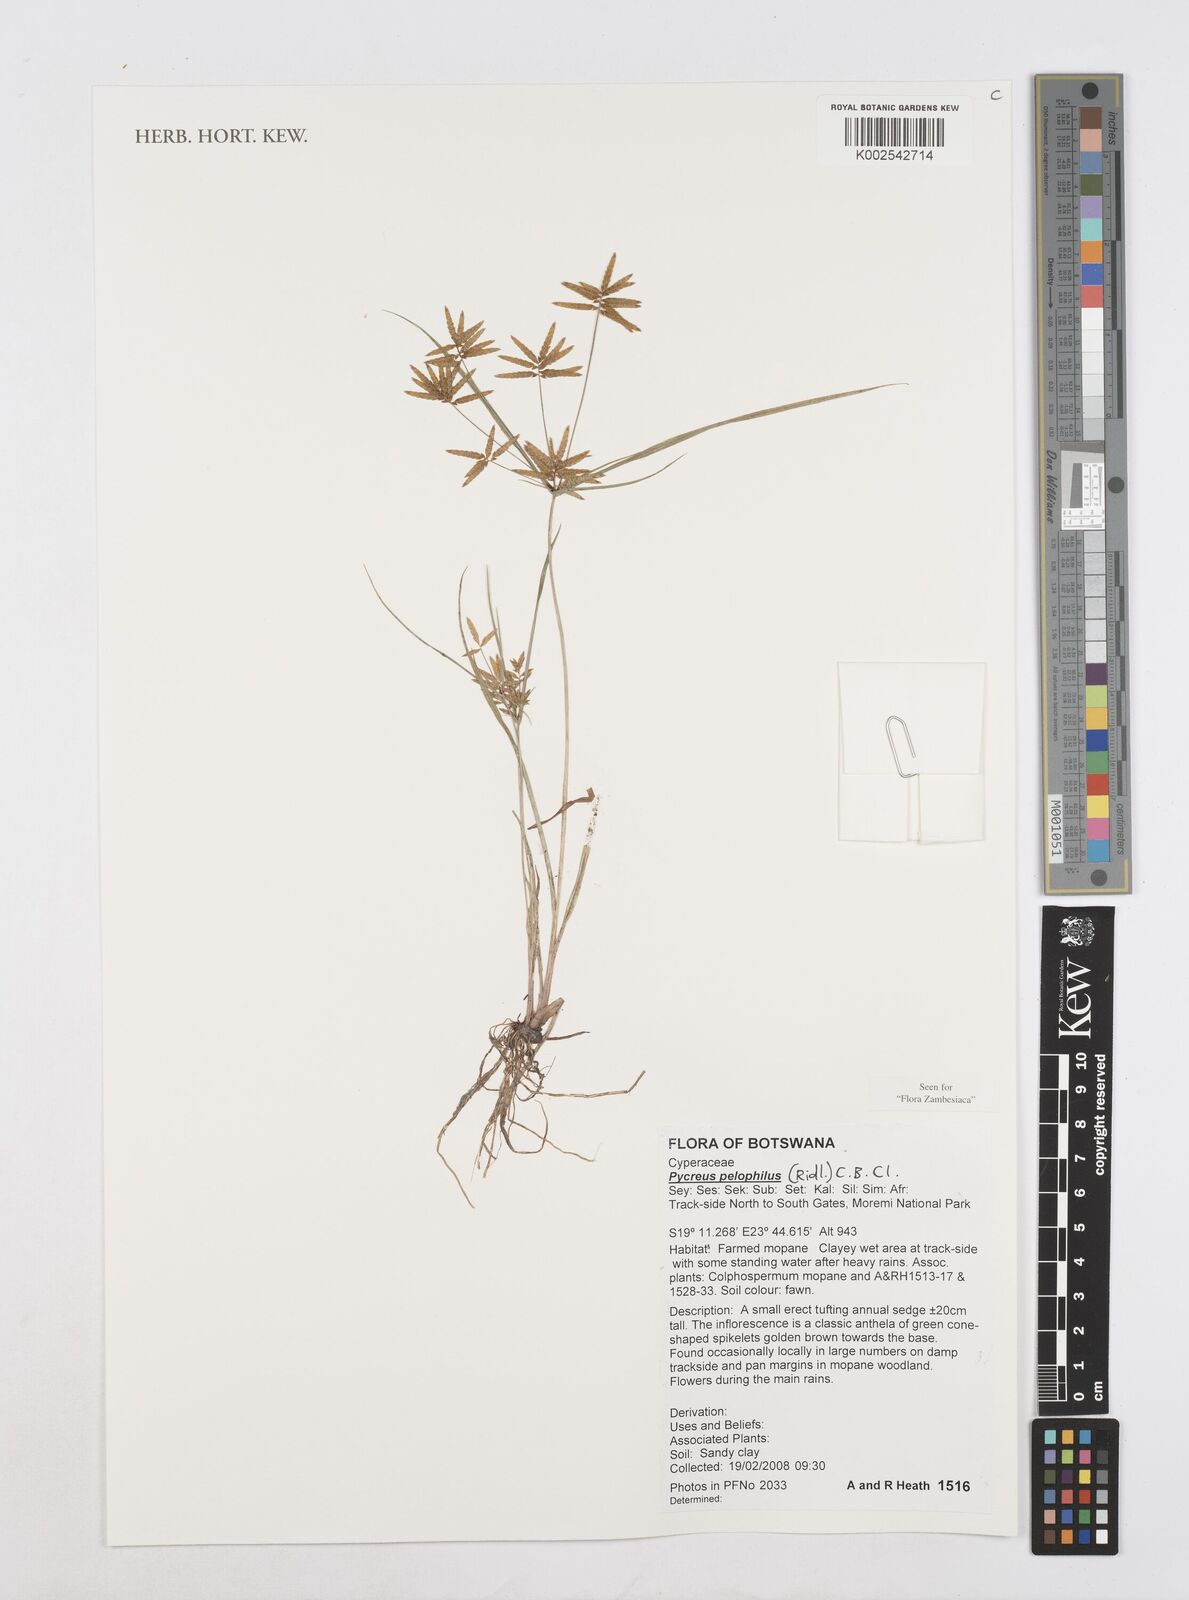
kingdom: Plantae
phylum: Tracheophyta
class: Liliopsida
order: Poales
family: Cyperaceae
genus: Cyperus
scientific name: Cyperus pelophilus
